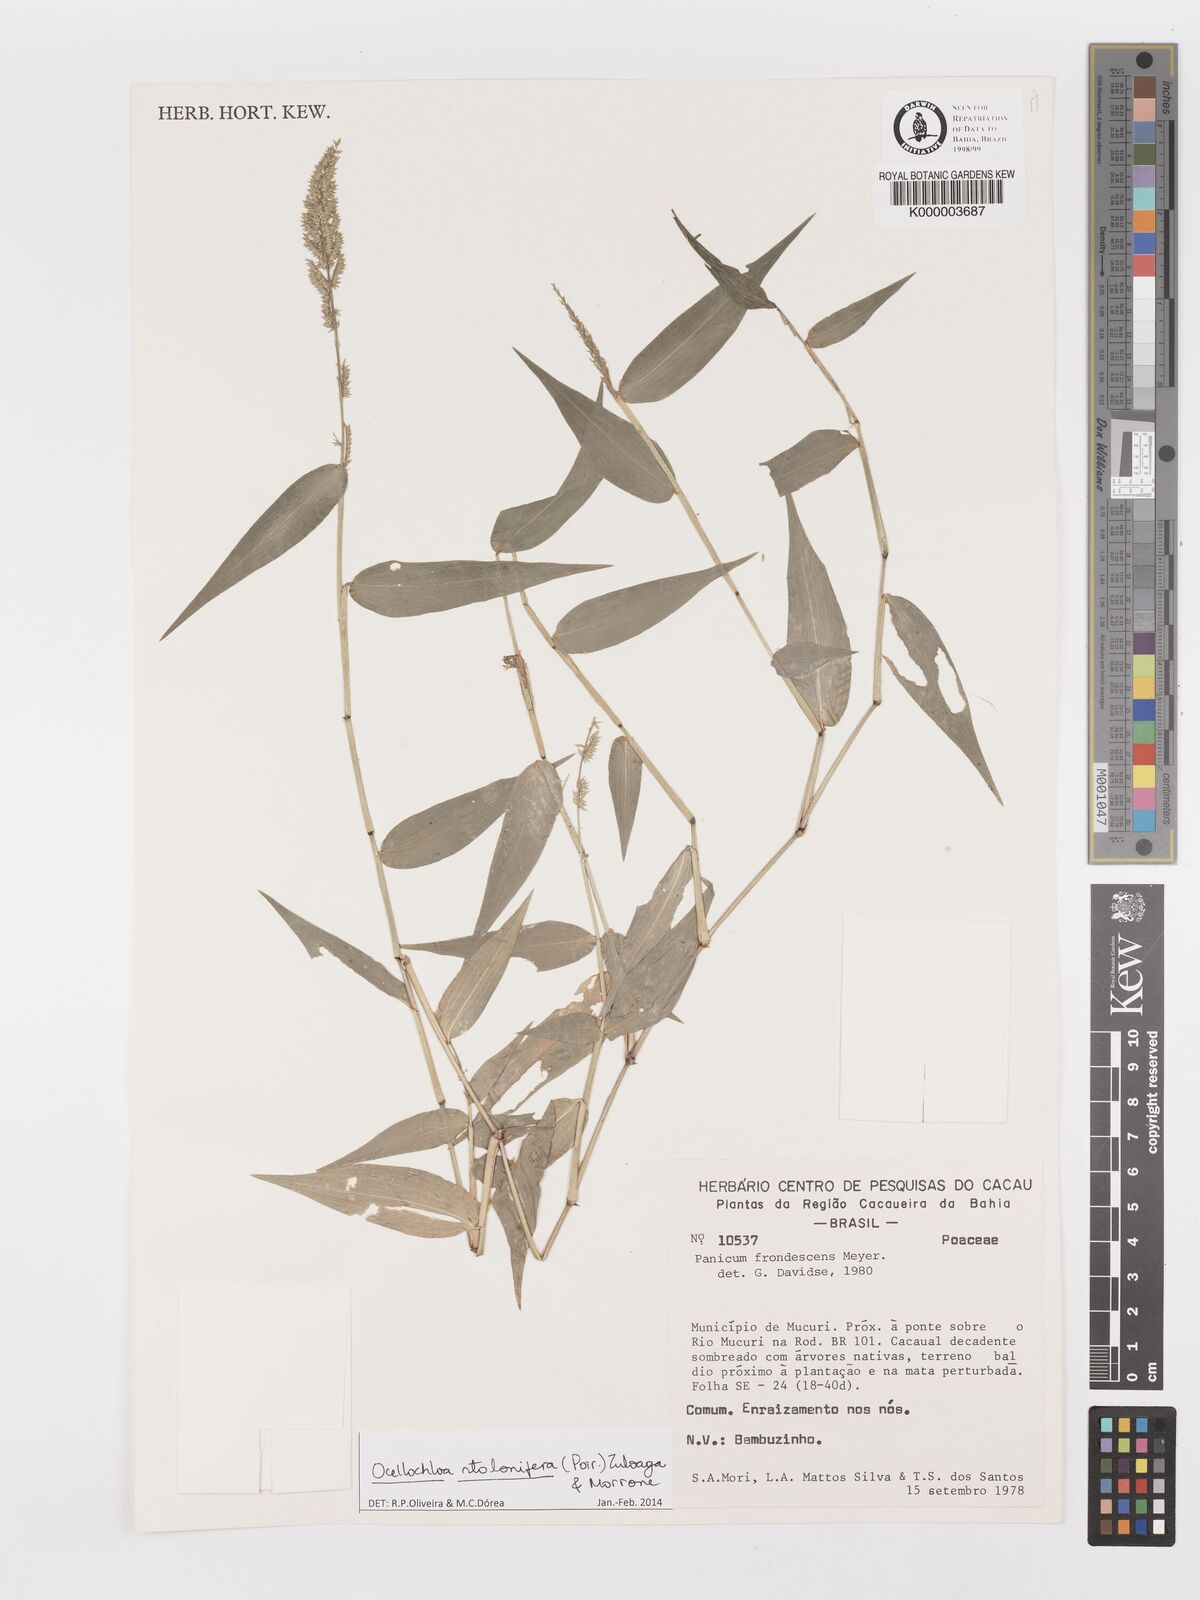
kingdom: Plantae
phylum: Tracheophyta
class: Liliopsida
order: Poales
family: Poaceae
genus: Ocellochloa
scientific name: Ocellochloa stolonifera
